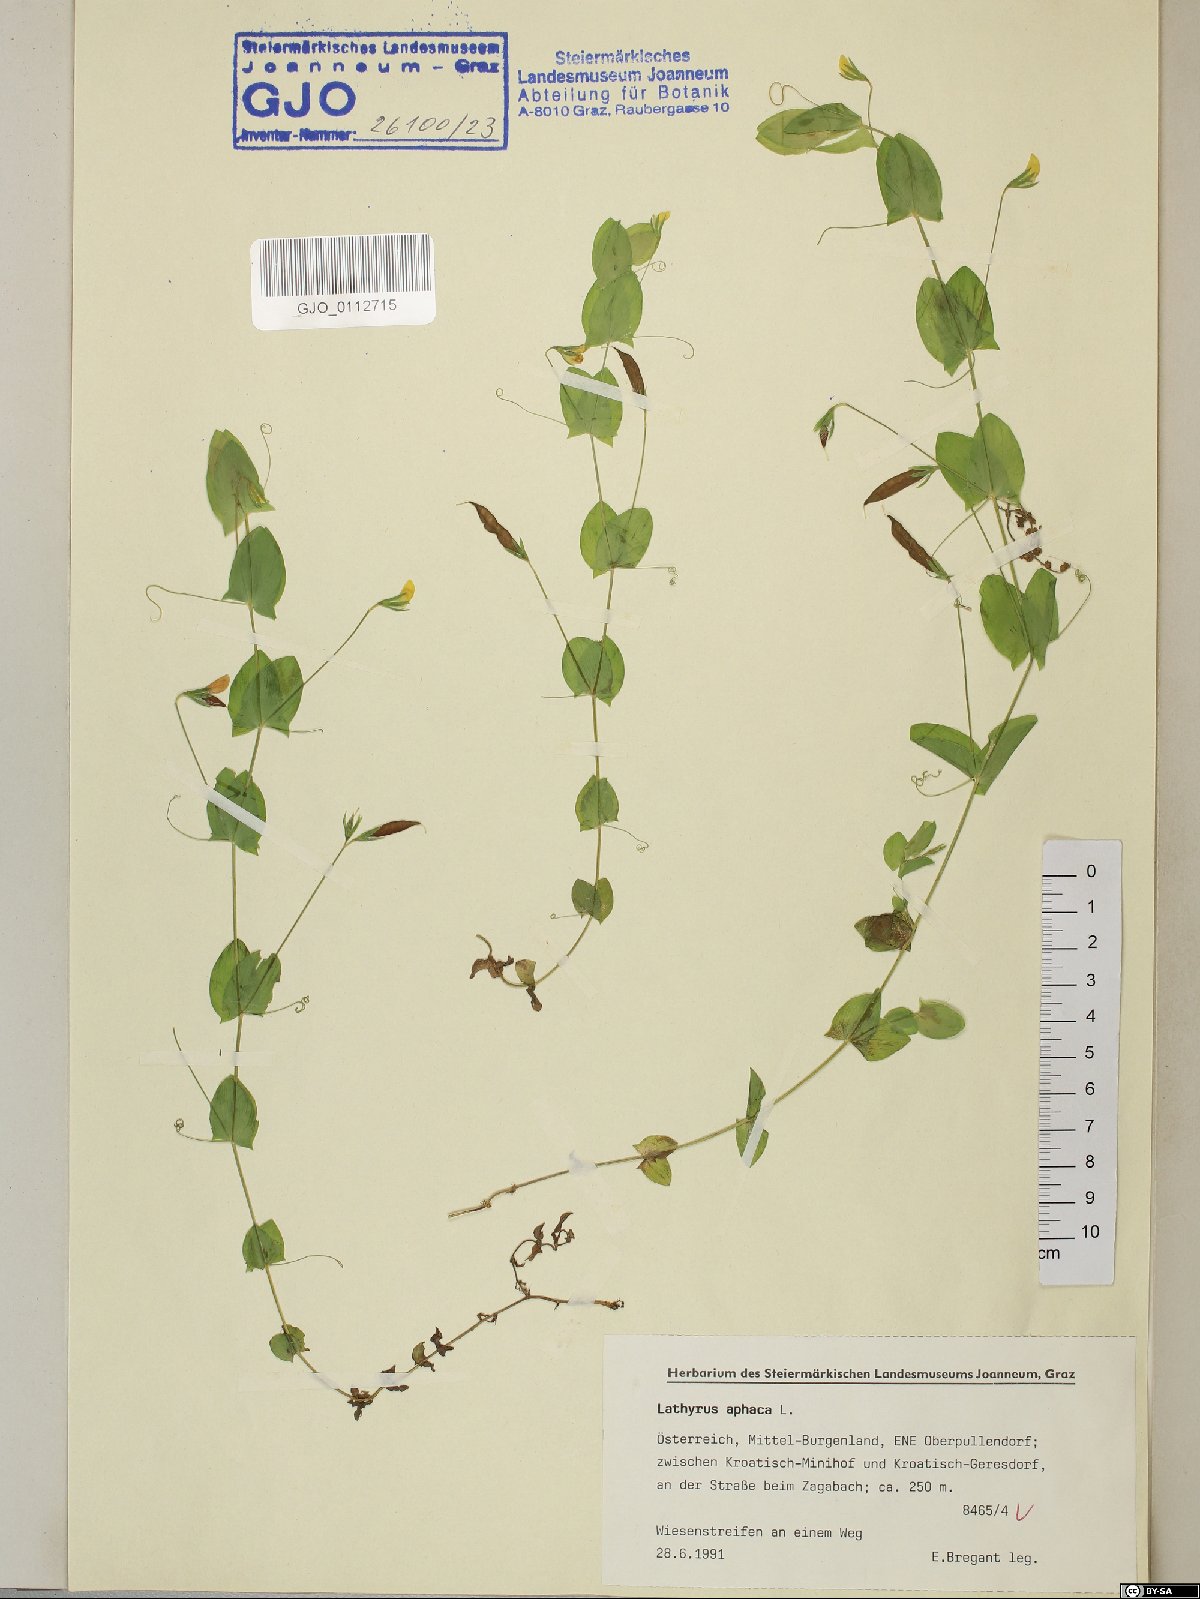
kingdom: Plantae
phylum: Tracheophyta
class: Magnoliopsida
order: Fabales
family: Fabaceae
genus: Lathyrus
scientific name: Lathyrus aphaca
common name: Yellow vetchling
